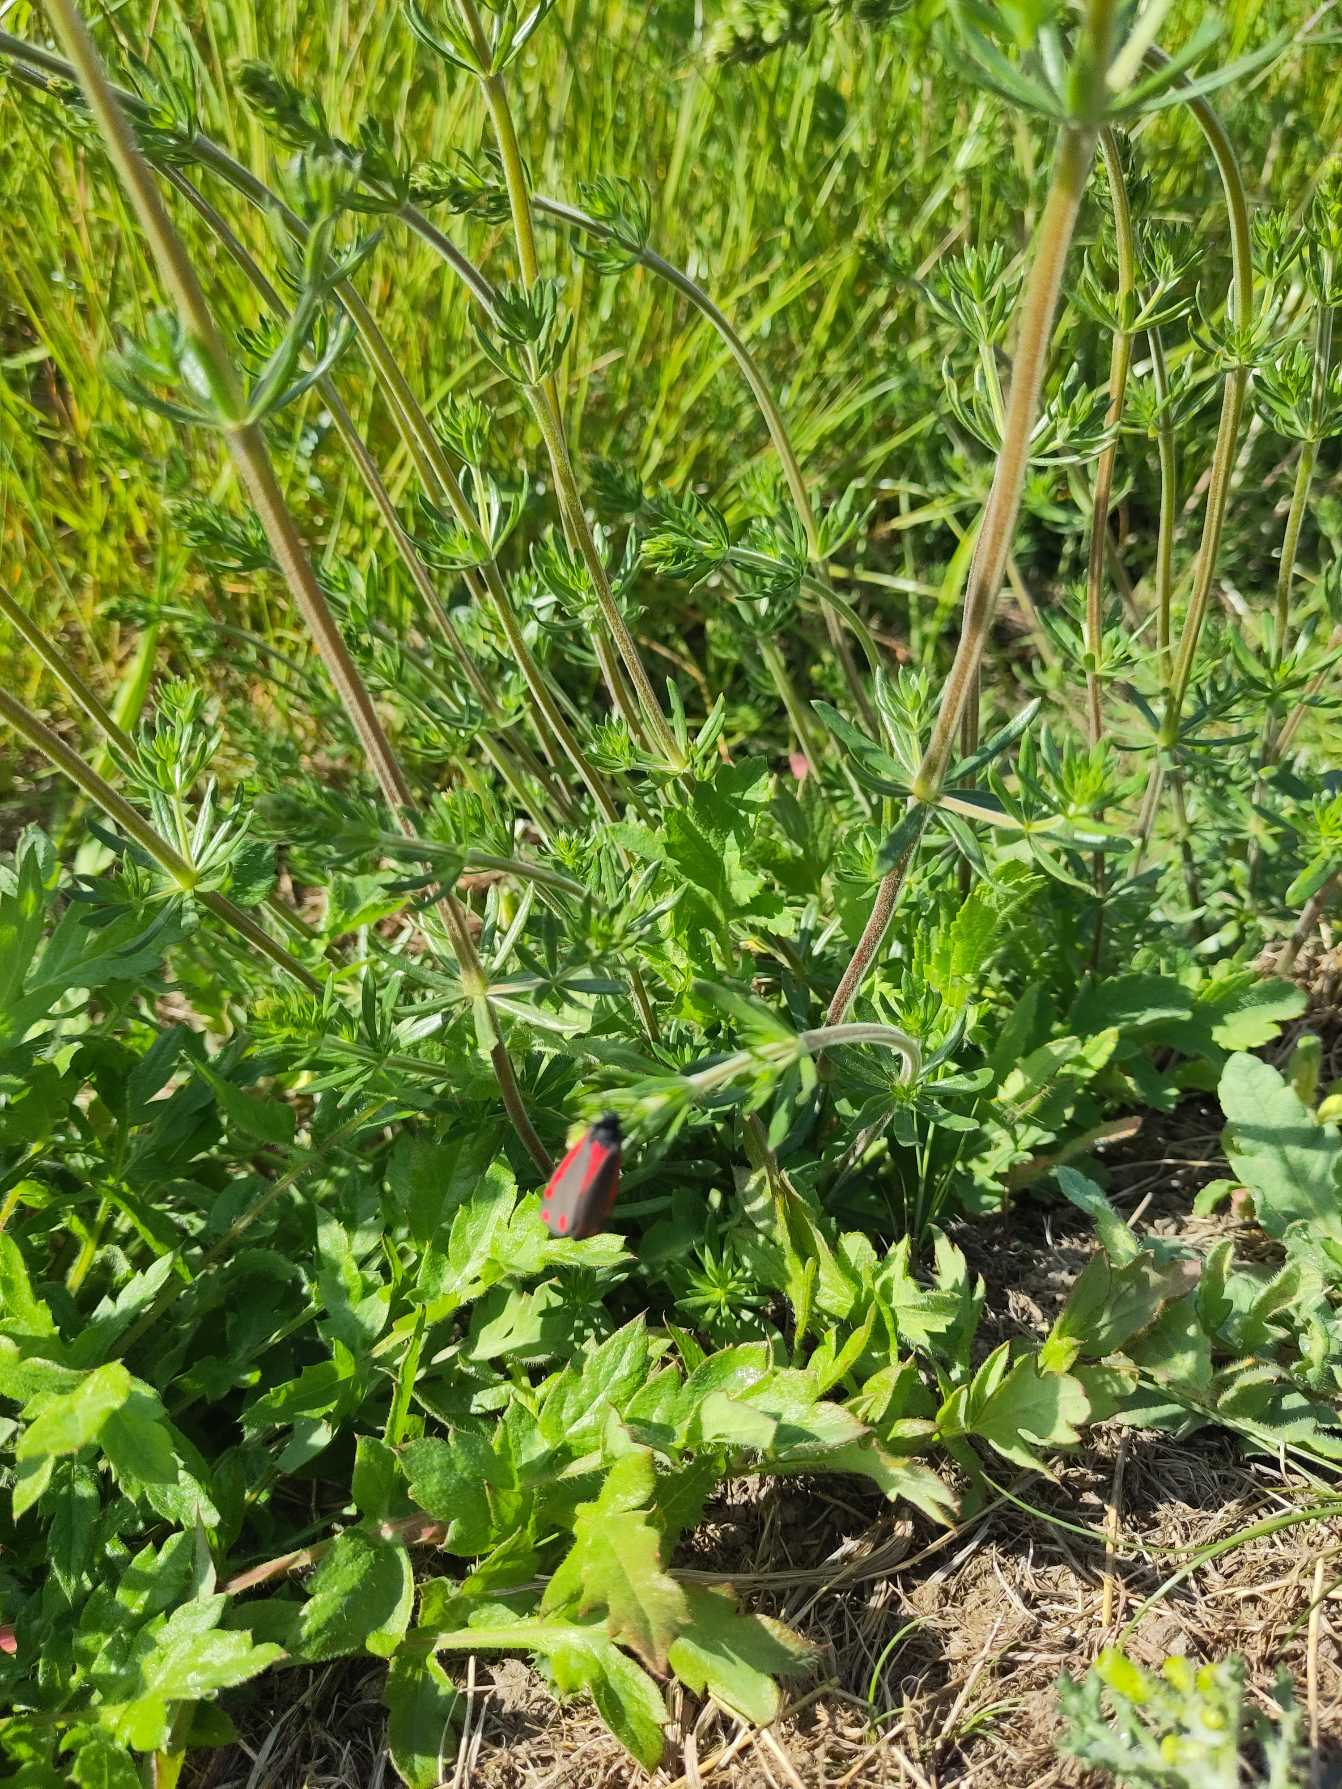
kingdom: Animalia
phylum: Arthropoda
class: Insecta
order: Lepidoptera
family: Erebidae
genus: Tyria
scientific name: Tyria jacobaeae
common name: Blodplet
